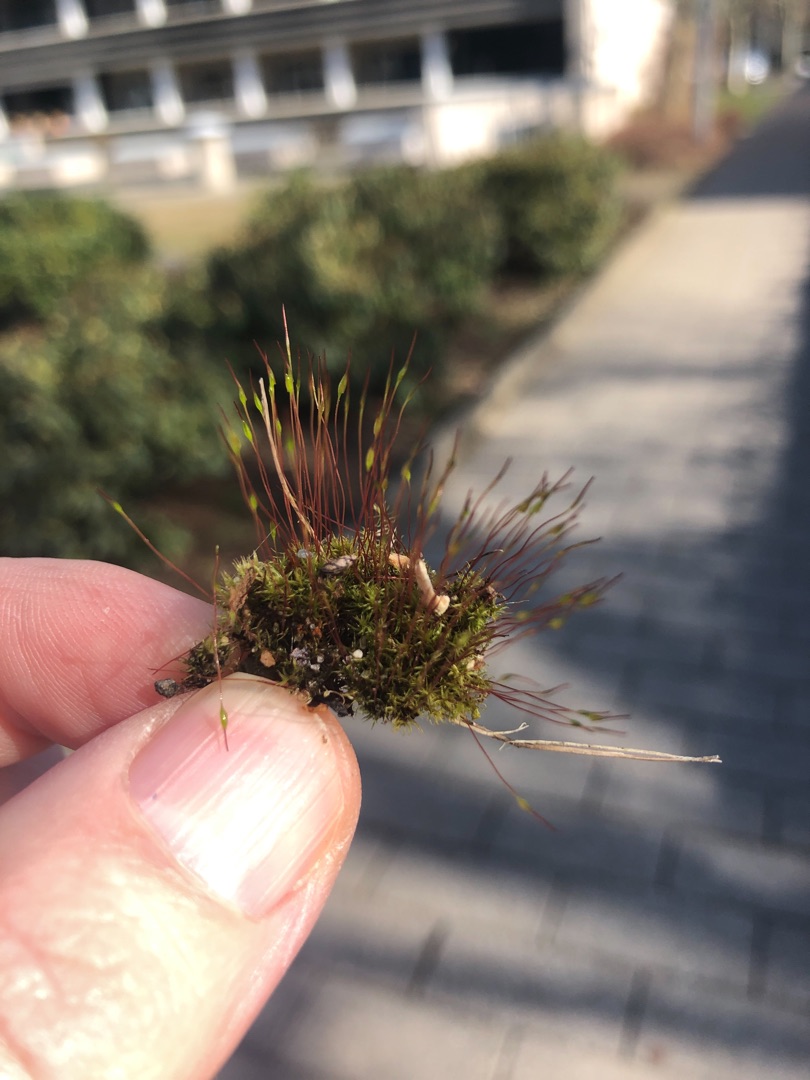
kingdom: Plantae
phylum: Bryophyta
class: Bryopsida
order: Dicranales
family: Ditrichaceae
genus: Ceratodon
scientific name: Ceratodon purpureus
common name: Rød horntand
